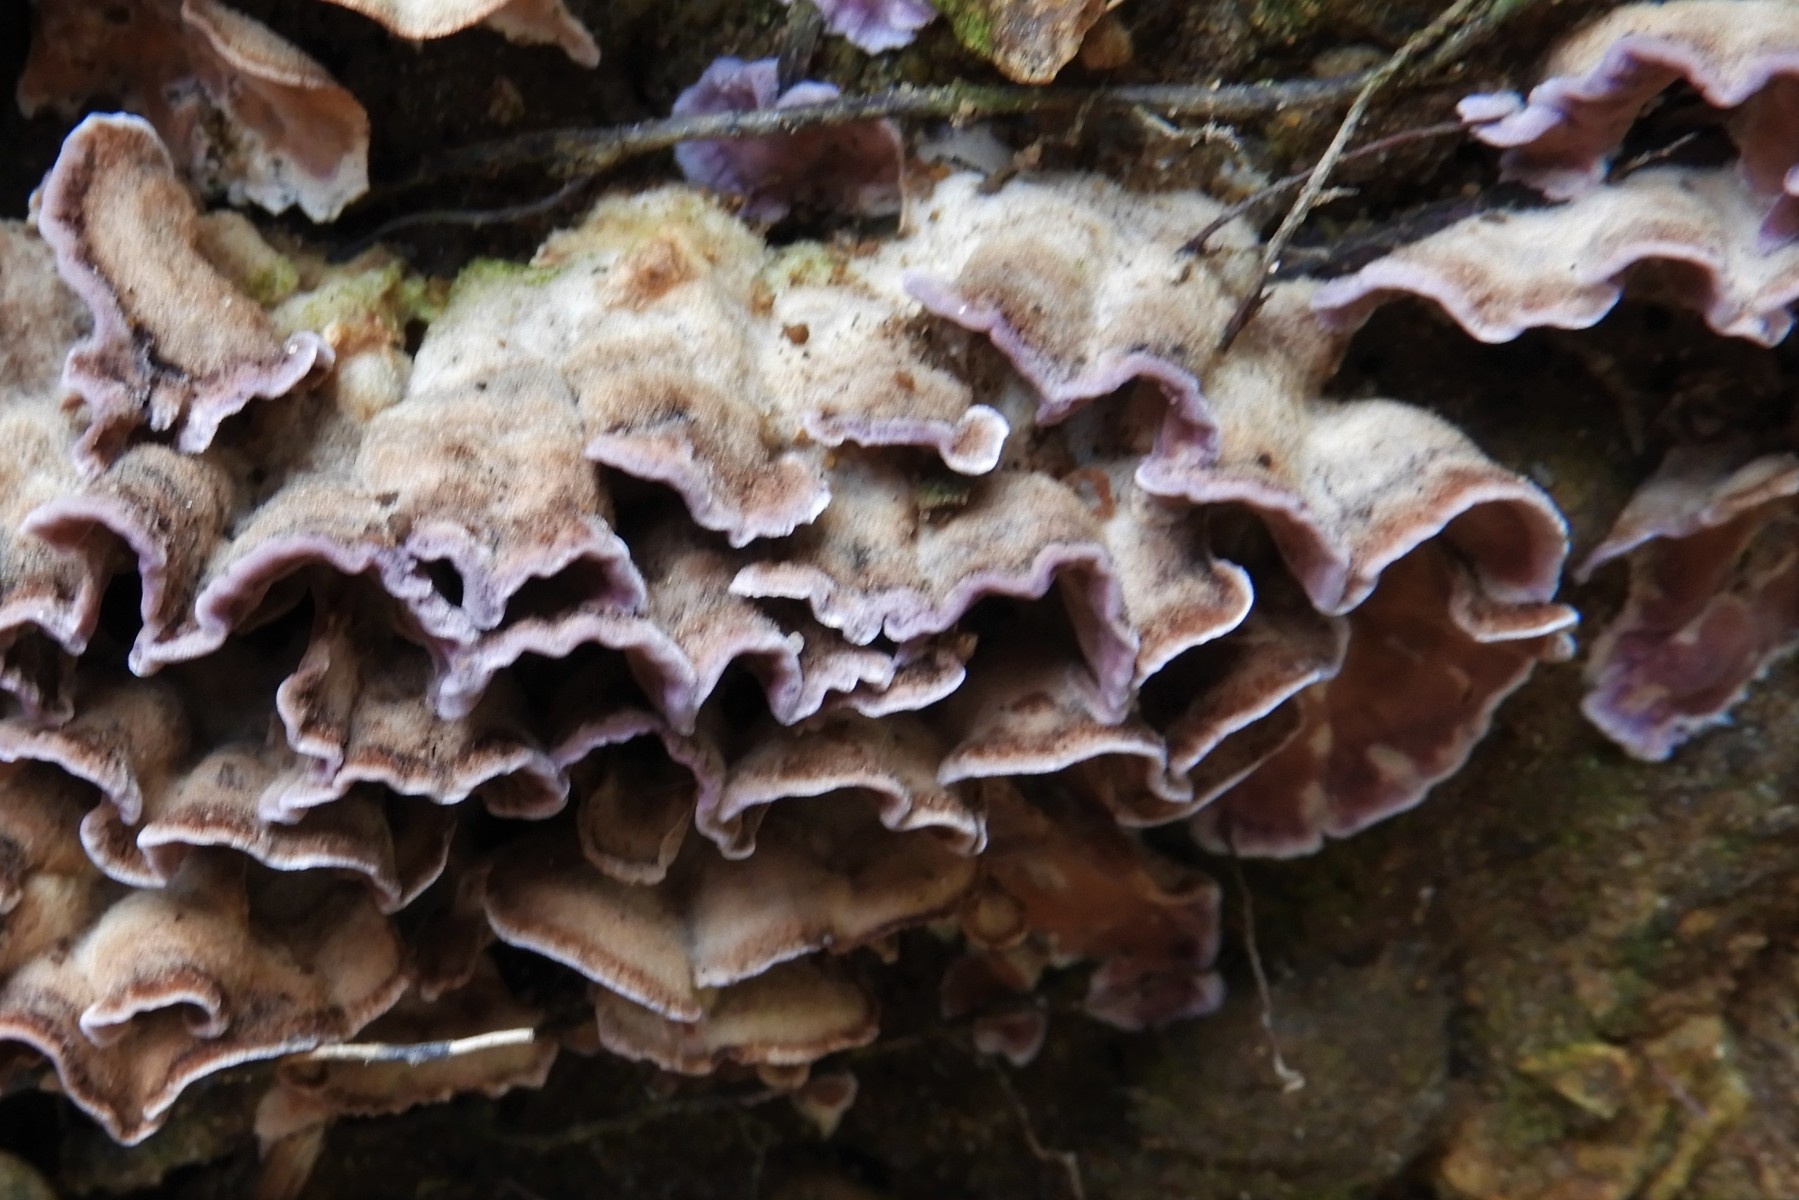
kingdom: Fungi
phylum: Basidiomycota
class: Agaricomycetes
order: Agaricales
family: Cyphellaceae
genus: Chondrostereum
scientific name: Chondrostereum purpureum
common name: purpurlædersvamp
